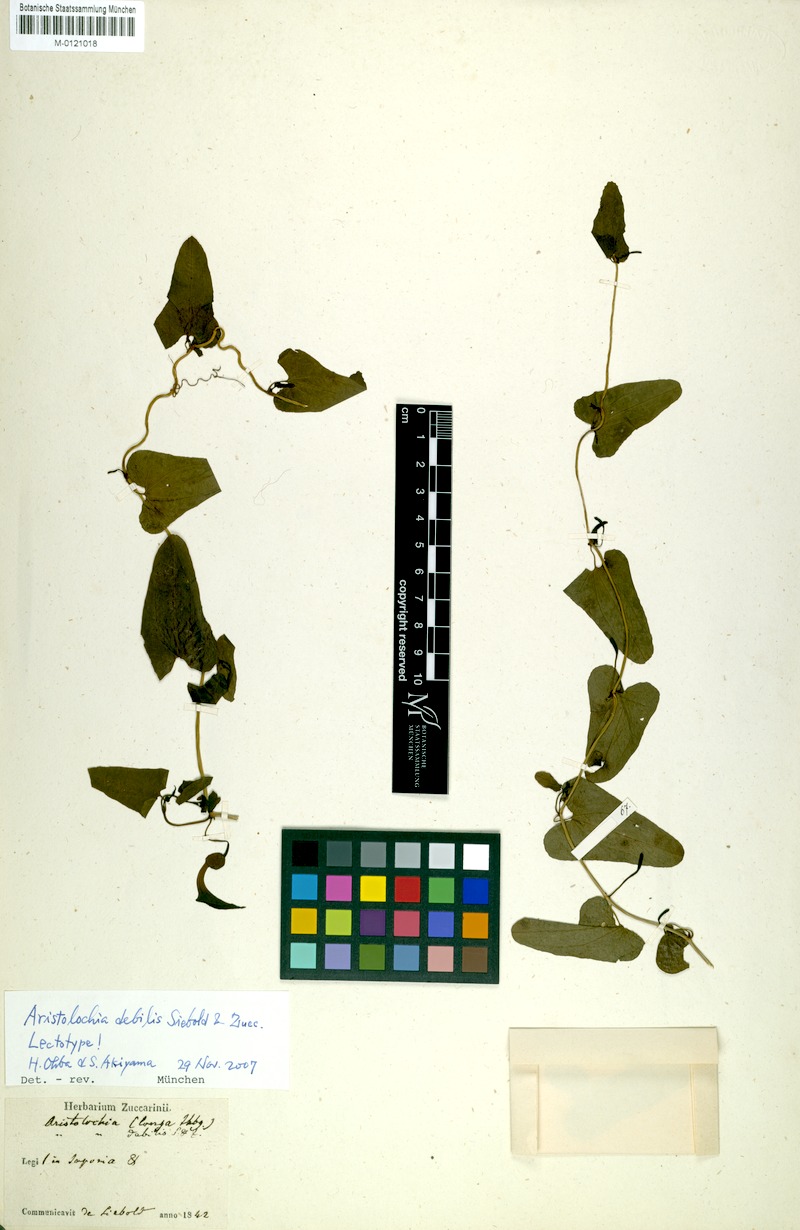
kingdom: Plantae
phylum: Tracheophyta
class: Magnoliopsida
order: Piperales
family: Aristolochiaceae
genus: Aristolochia
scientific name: Aristolochia debilis
